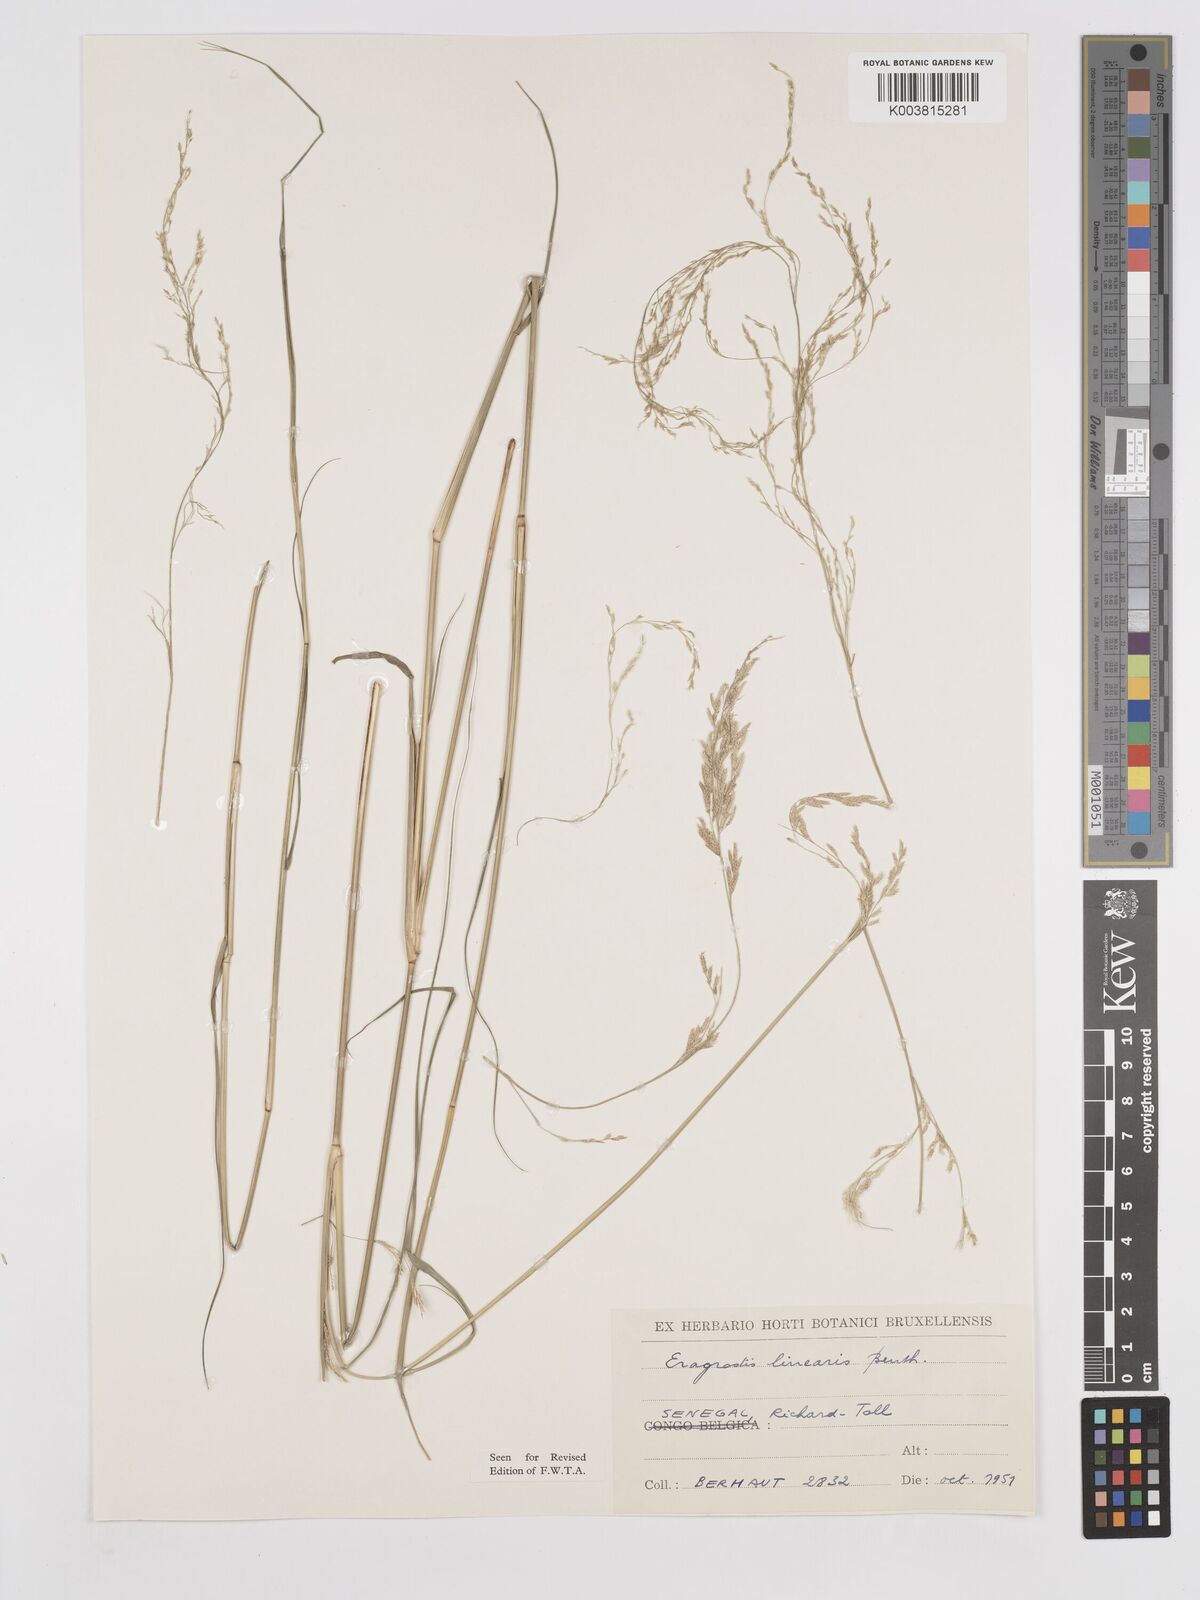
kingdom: Plantae
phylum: Tracheophyta
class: Liliopsida
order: Poales
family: Poaceae
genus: Eragrostis
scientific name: Eragrostis prolifera
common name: Dominican lovegrass
